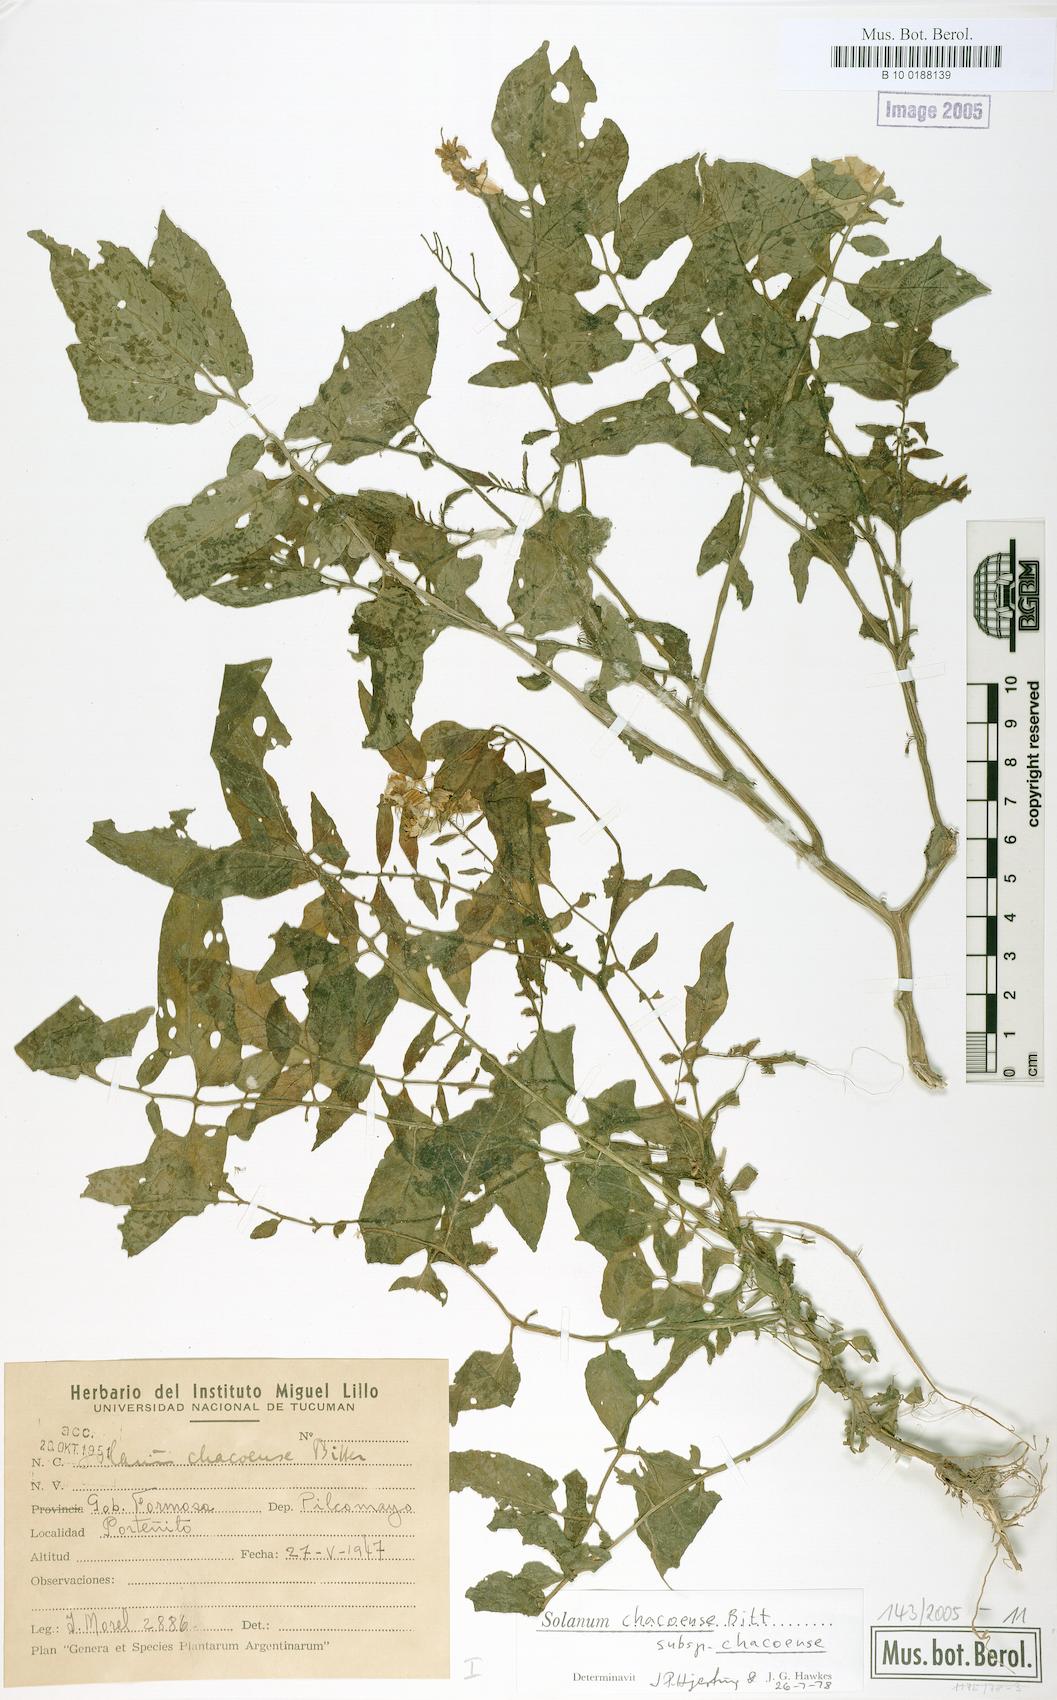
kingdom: Plantae
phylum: Tracheophyta
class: Magnoliopsida
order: Solanales
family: Solanaceae
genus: Solanum
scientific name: Solanum chacoense
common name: Chaco potato
